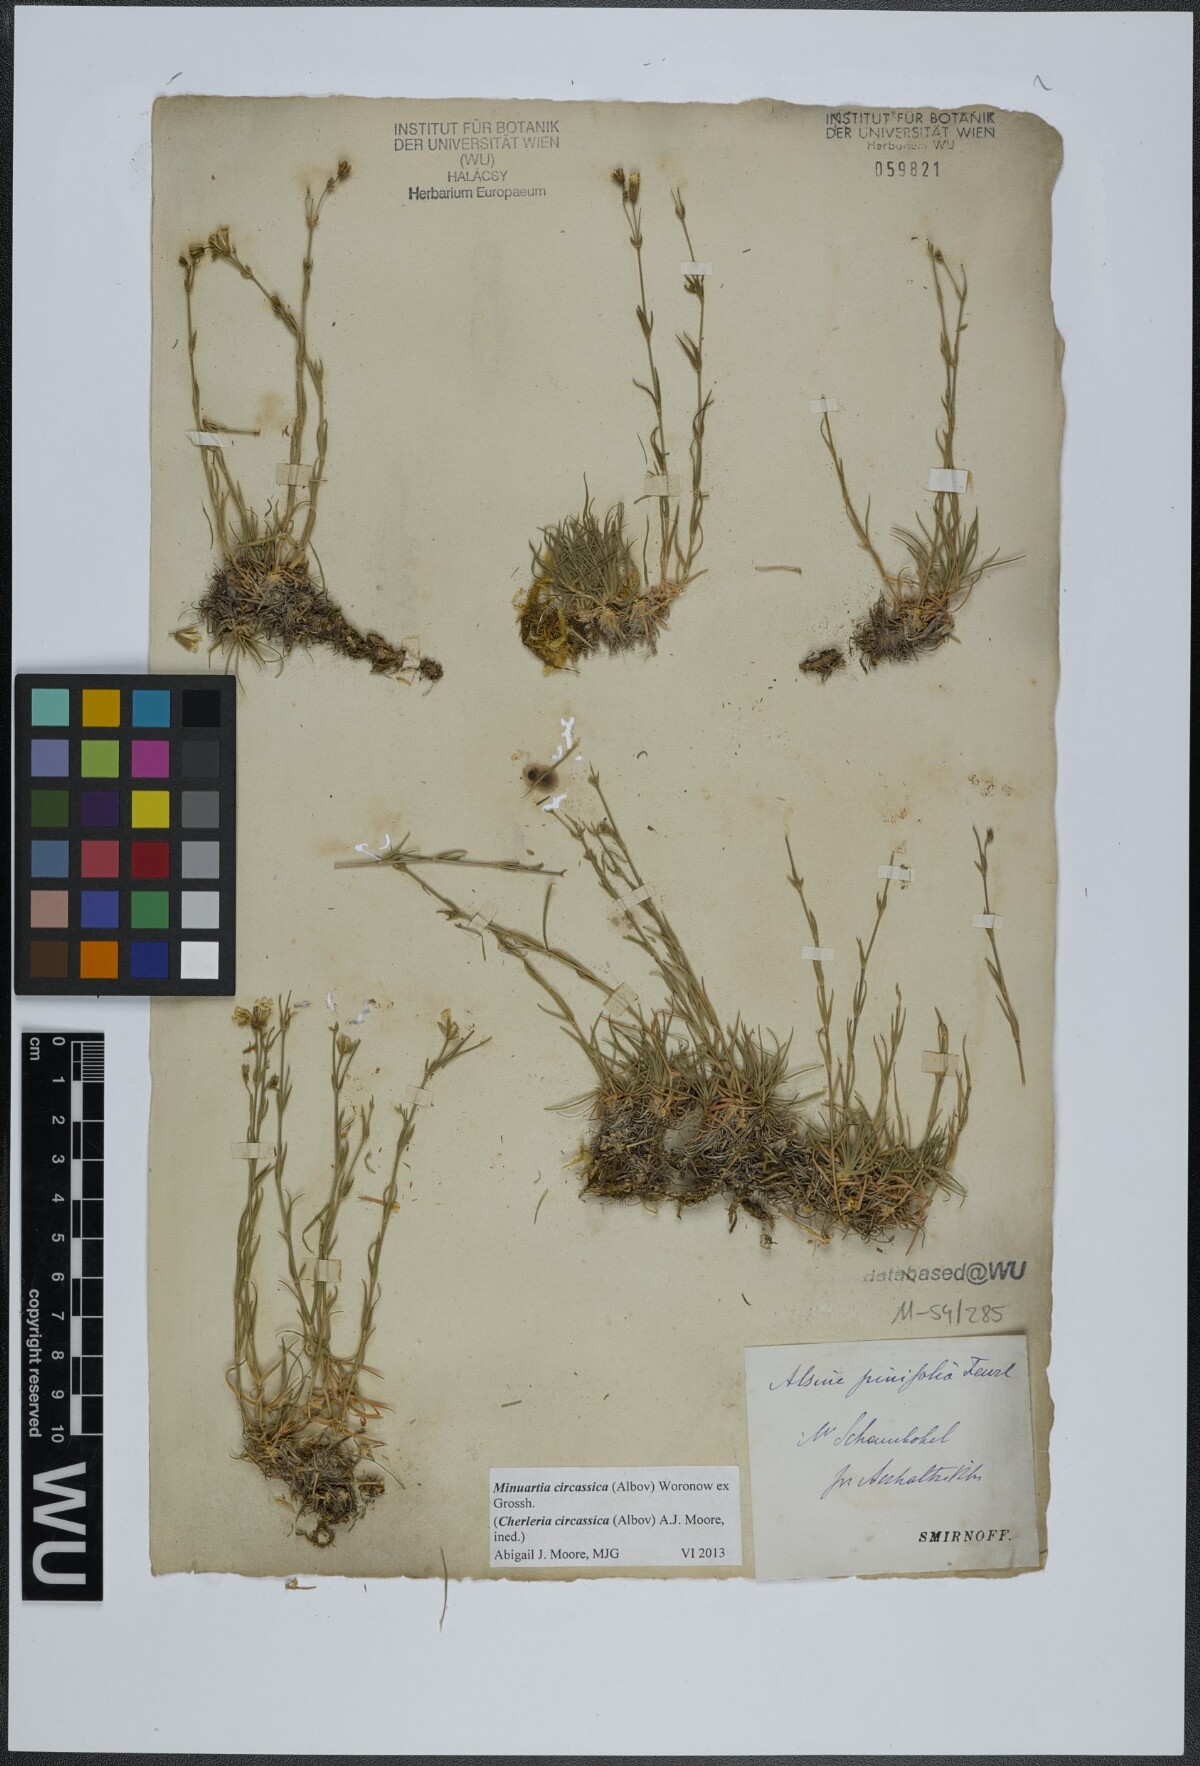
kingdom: Plantae
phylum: Tracheophyta
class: Magnoliopsida
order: Caryophyllales
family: Caryophyllaceae
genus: Cherleria
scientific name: Cherleria circassica
